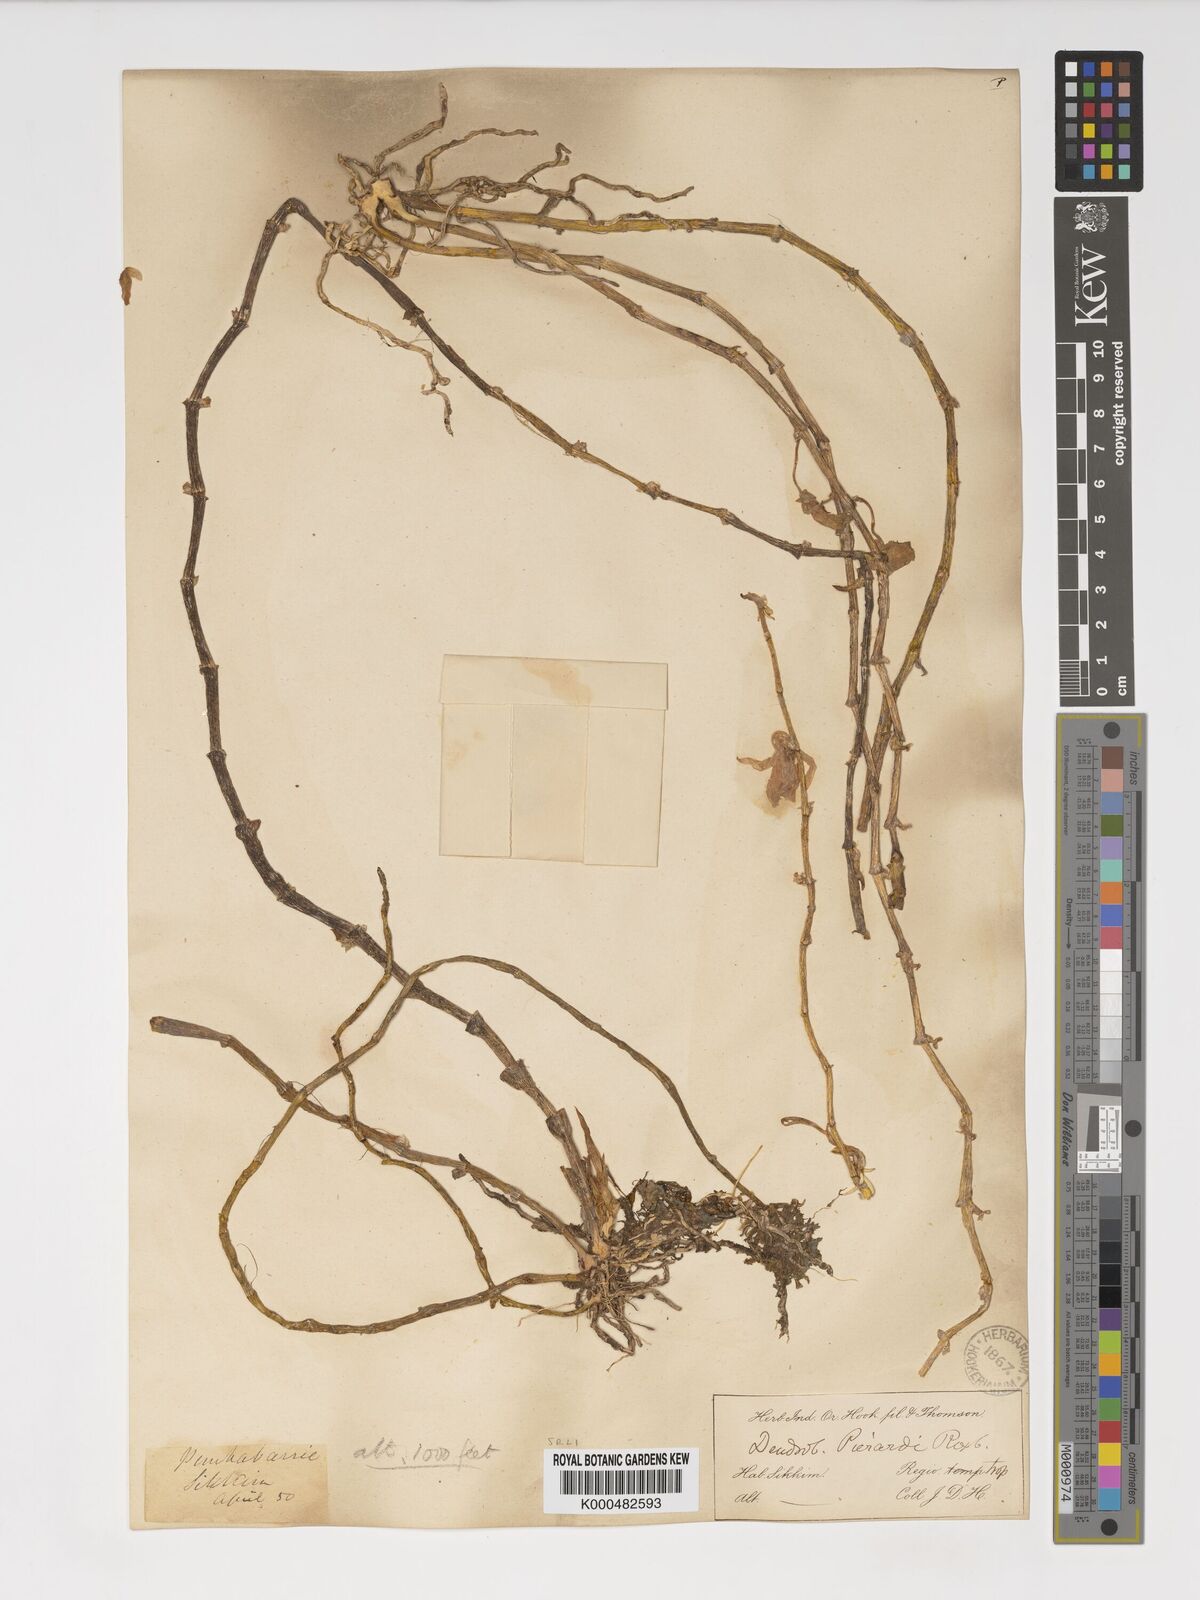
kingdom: Plantae
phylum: Tracheophyta
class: Liliopsida
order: Asparagales
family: Orchidaceae
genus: Dendrobium
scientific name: Dendrobium macrostachyum
